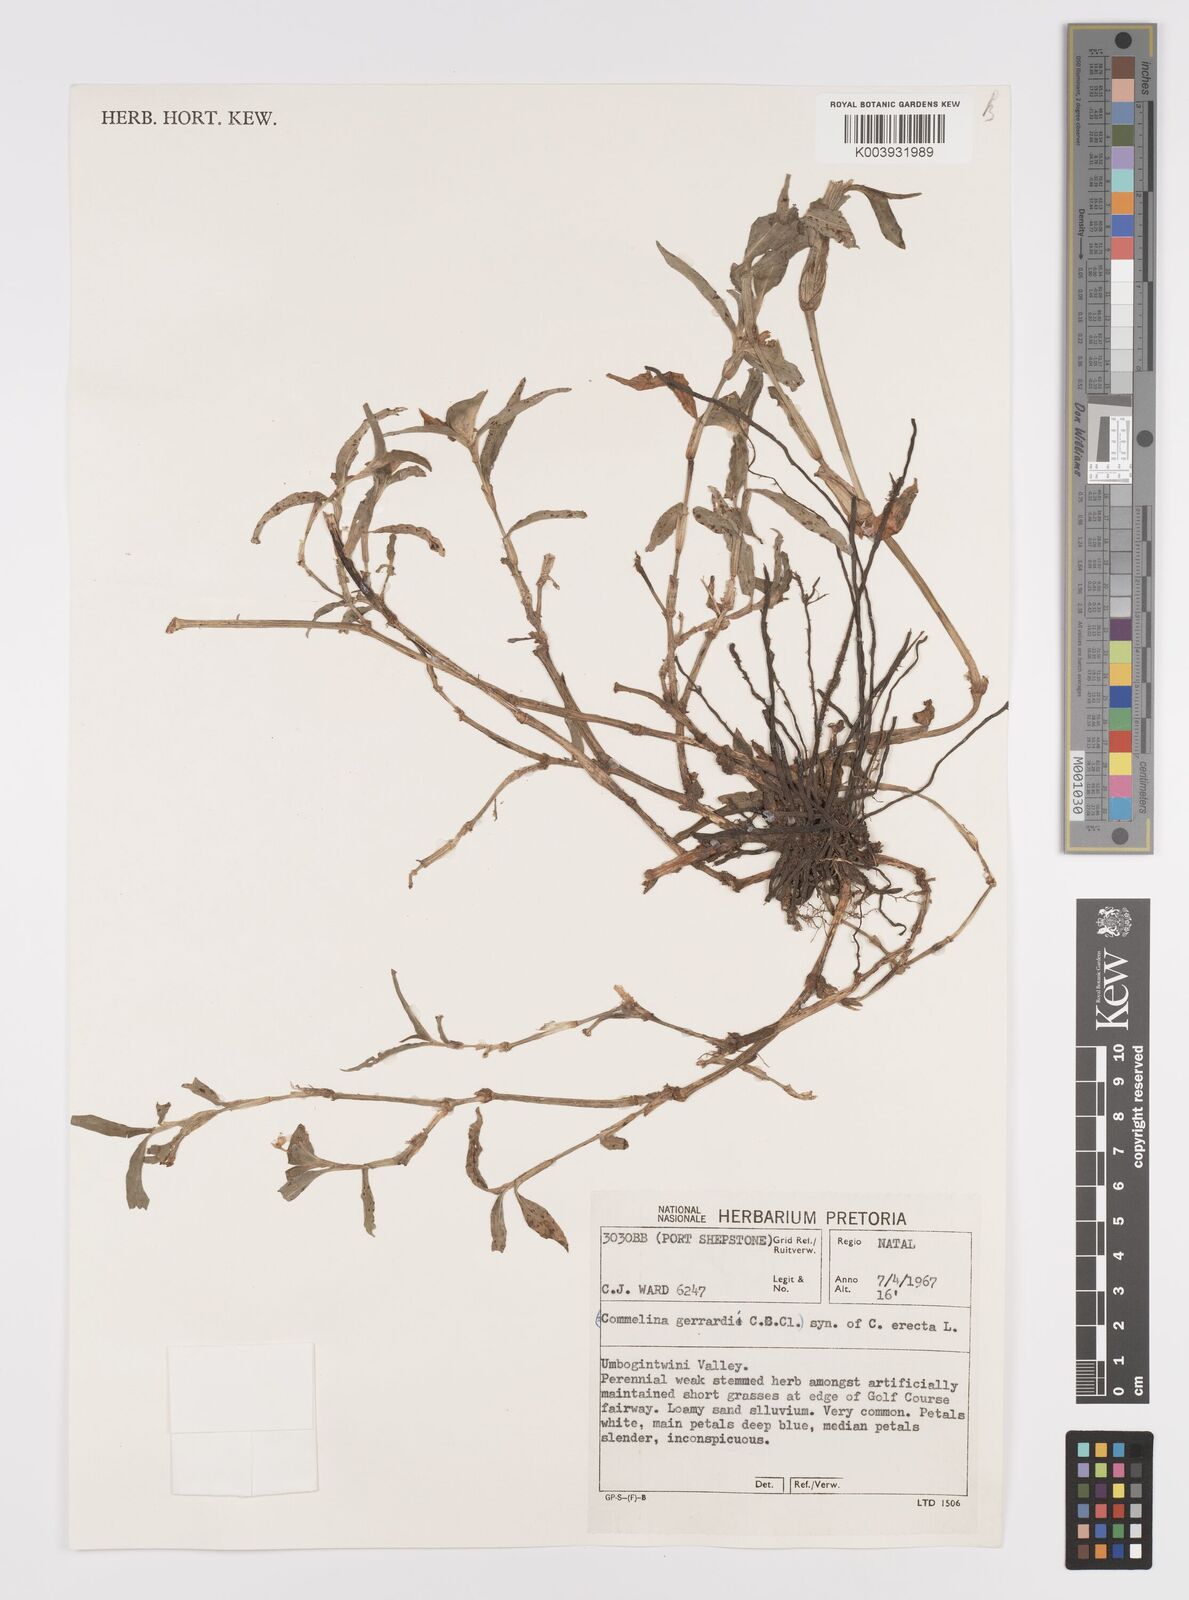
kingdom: Plantae
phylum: Tracheophyta
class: Liliopsida
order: Commelinales
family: Commelinaceae
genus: Commelina
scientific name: Commelina erecta
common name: Blousel blommetjie
